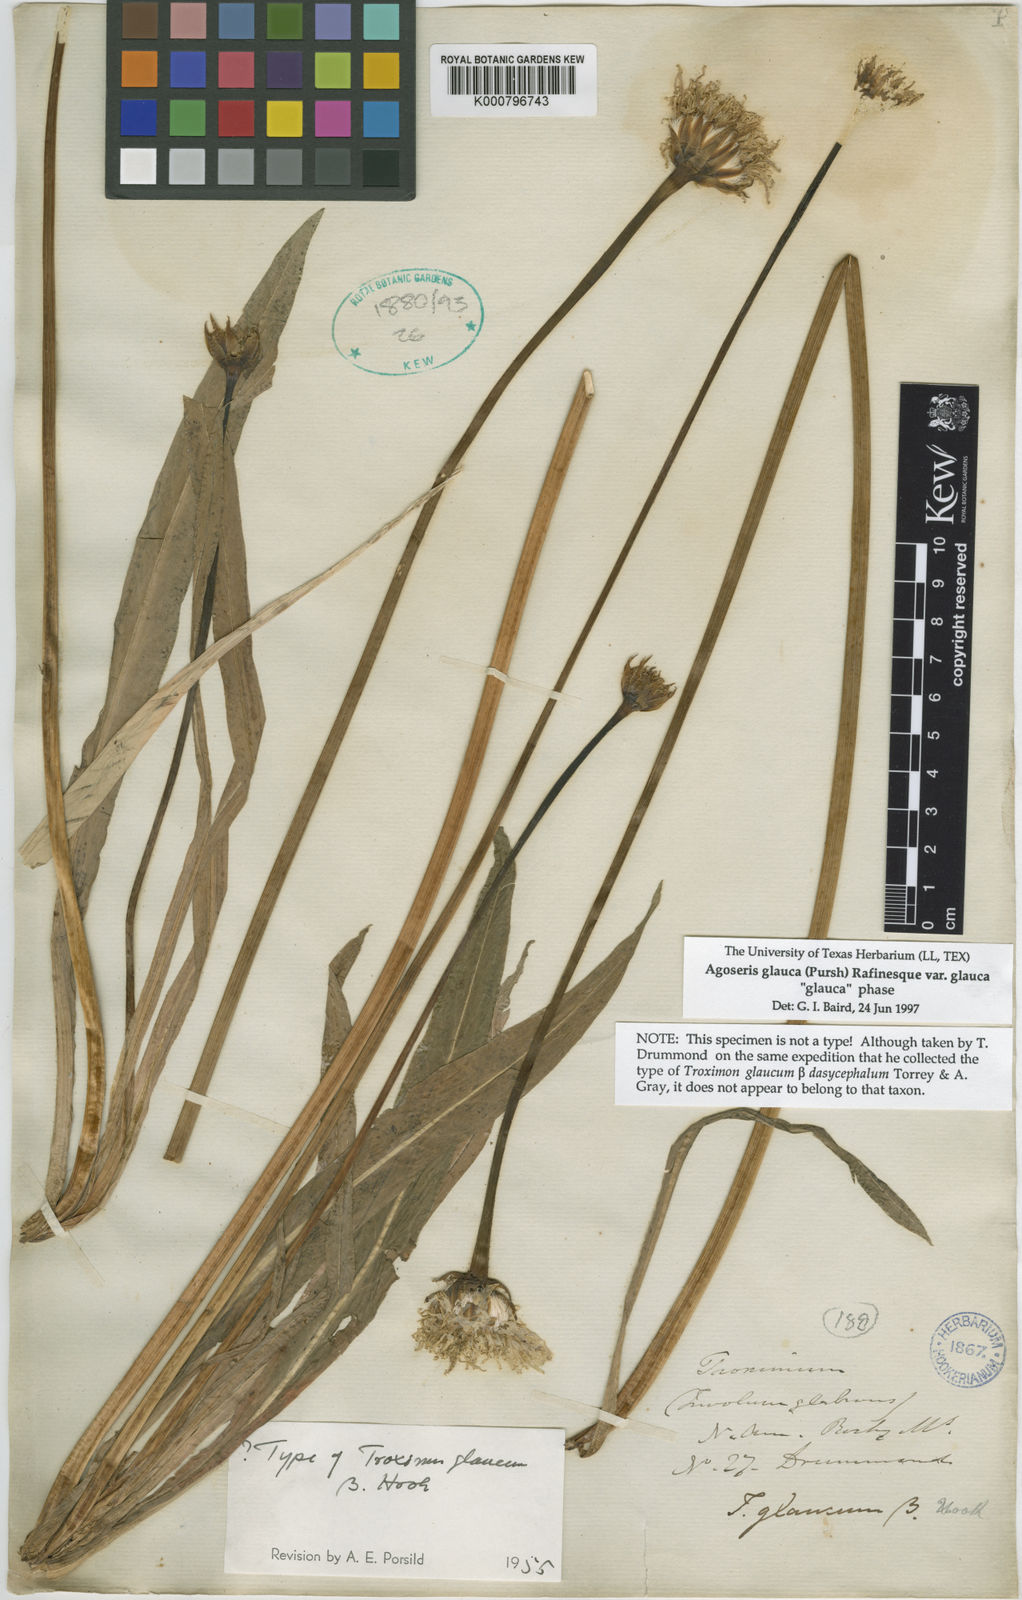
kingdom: Plantae
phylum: Tracheophyta
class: Magnoliopsida
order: Asterales
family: Asteraceae
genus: Agoseris
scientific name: Agoseris glauca
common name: Prairie agoseris
